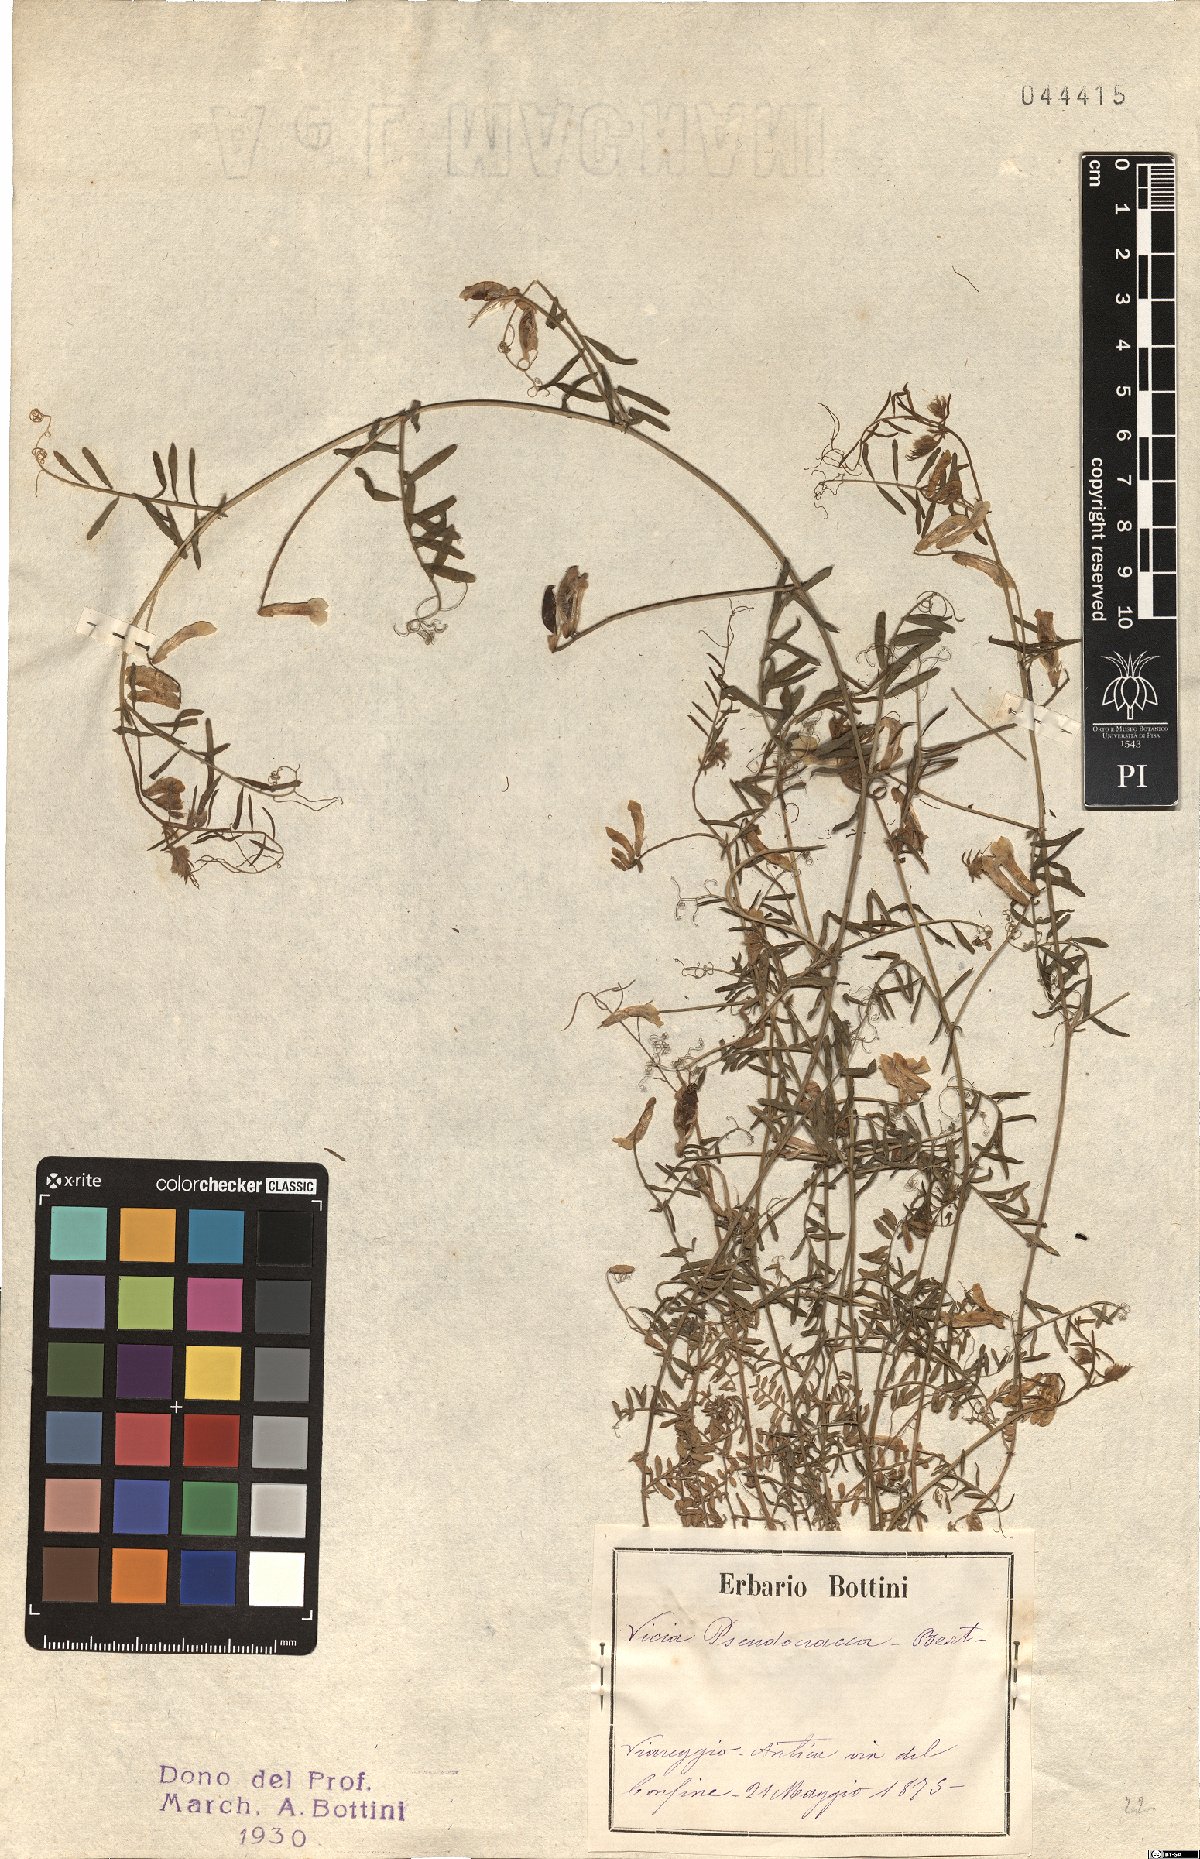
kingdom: Plantae
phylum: Tracheophyta
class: Magnoliopsida
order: Fabales
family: Fabaceae
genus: Vicia
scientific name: Vicia villosa
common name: Fodder vetch
